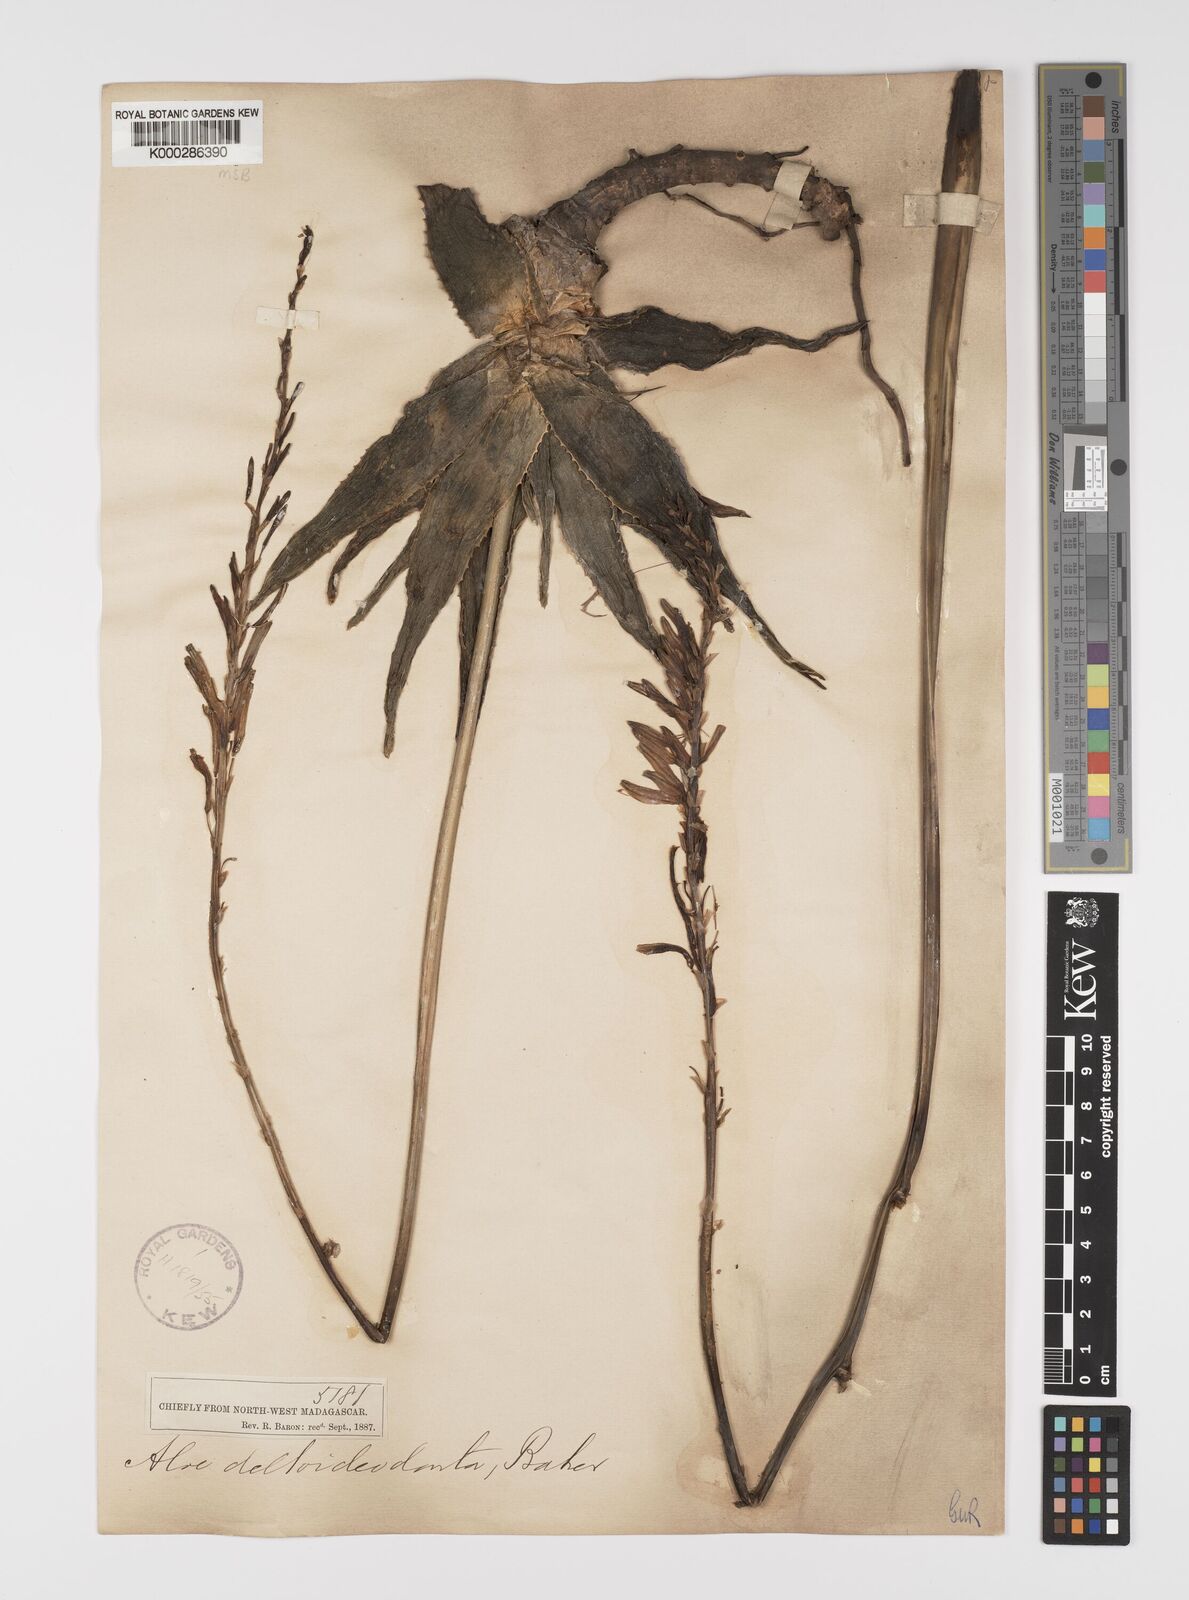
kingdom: Plantae
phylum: Tracheophyta
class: Liliopsida
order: Asparagales
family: Asphodelaceae
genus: Aloe
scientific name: Aloe deltoideodonta
